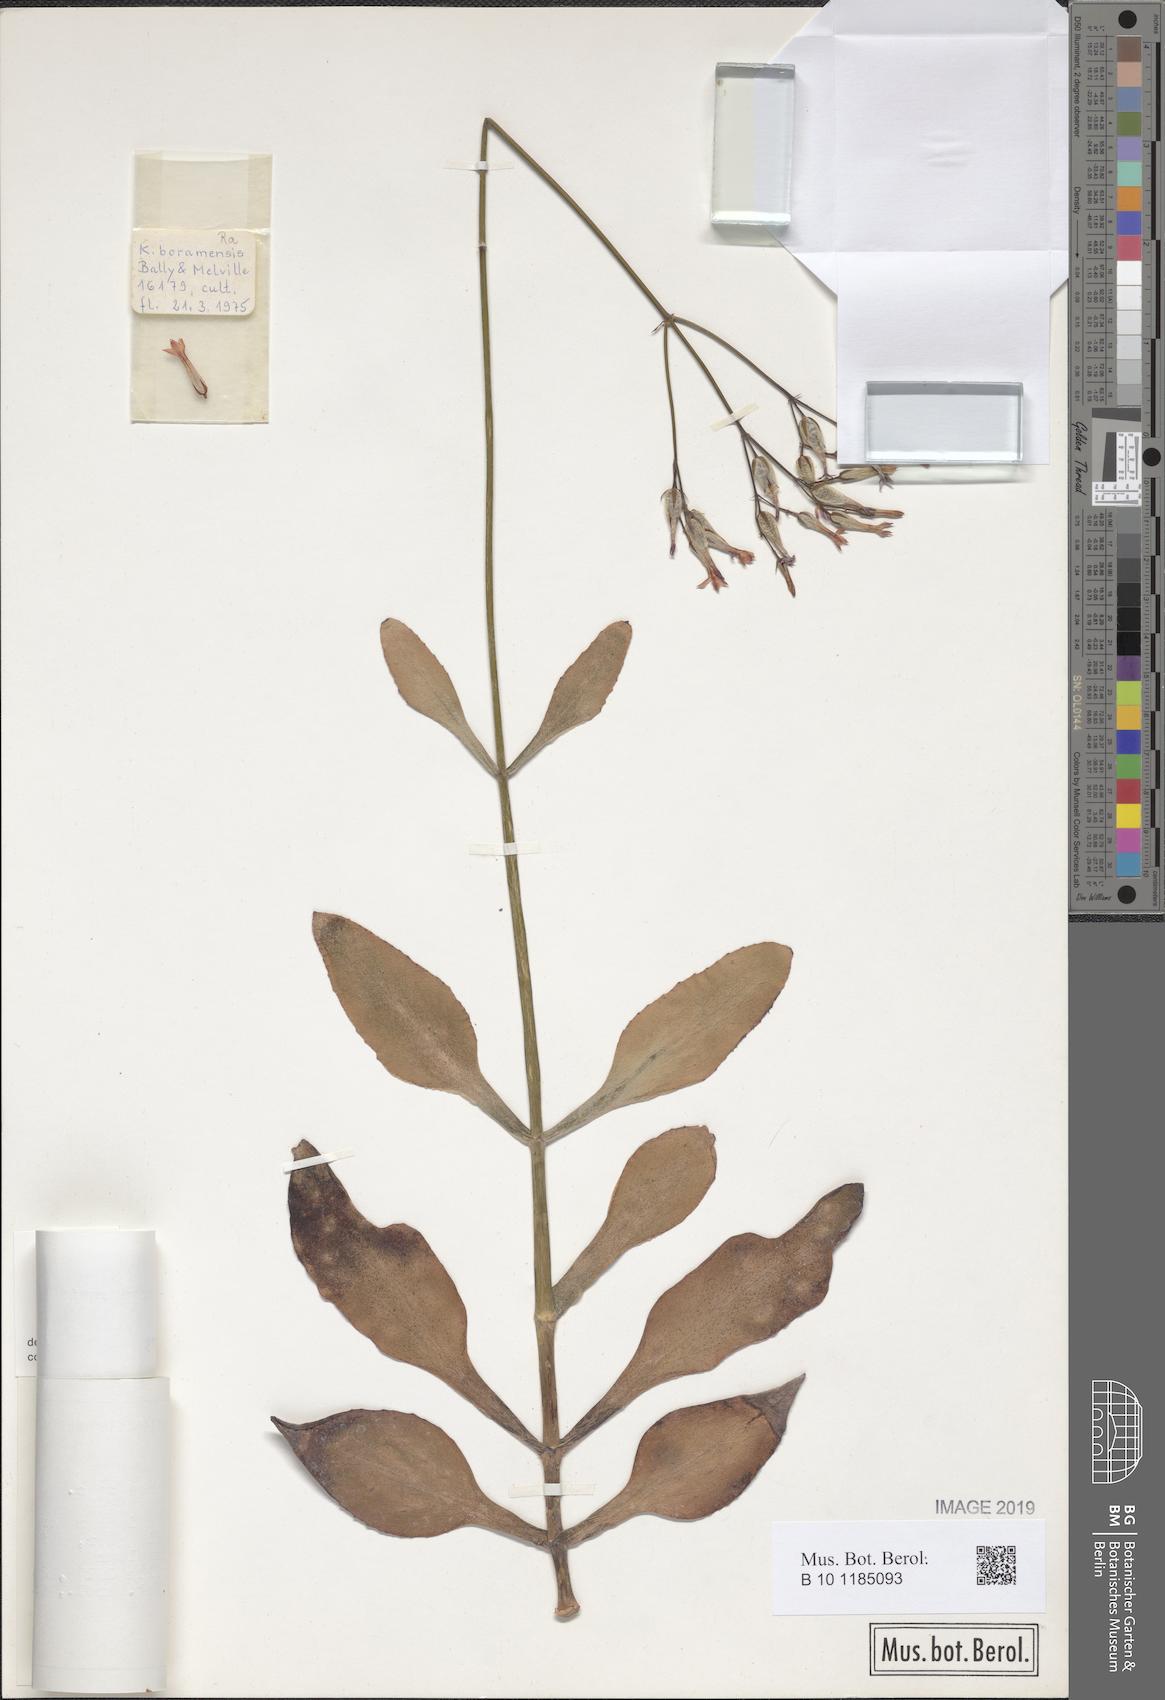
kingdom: Plantae
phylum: Tracheophyta
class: Magnoliopsida
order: Saxifragales
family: Crassulaceae
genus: Kalanchoe
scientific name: Kalanchoe
